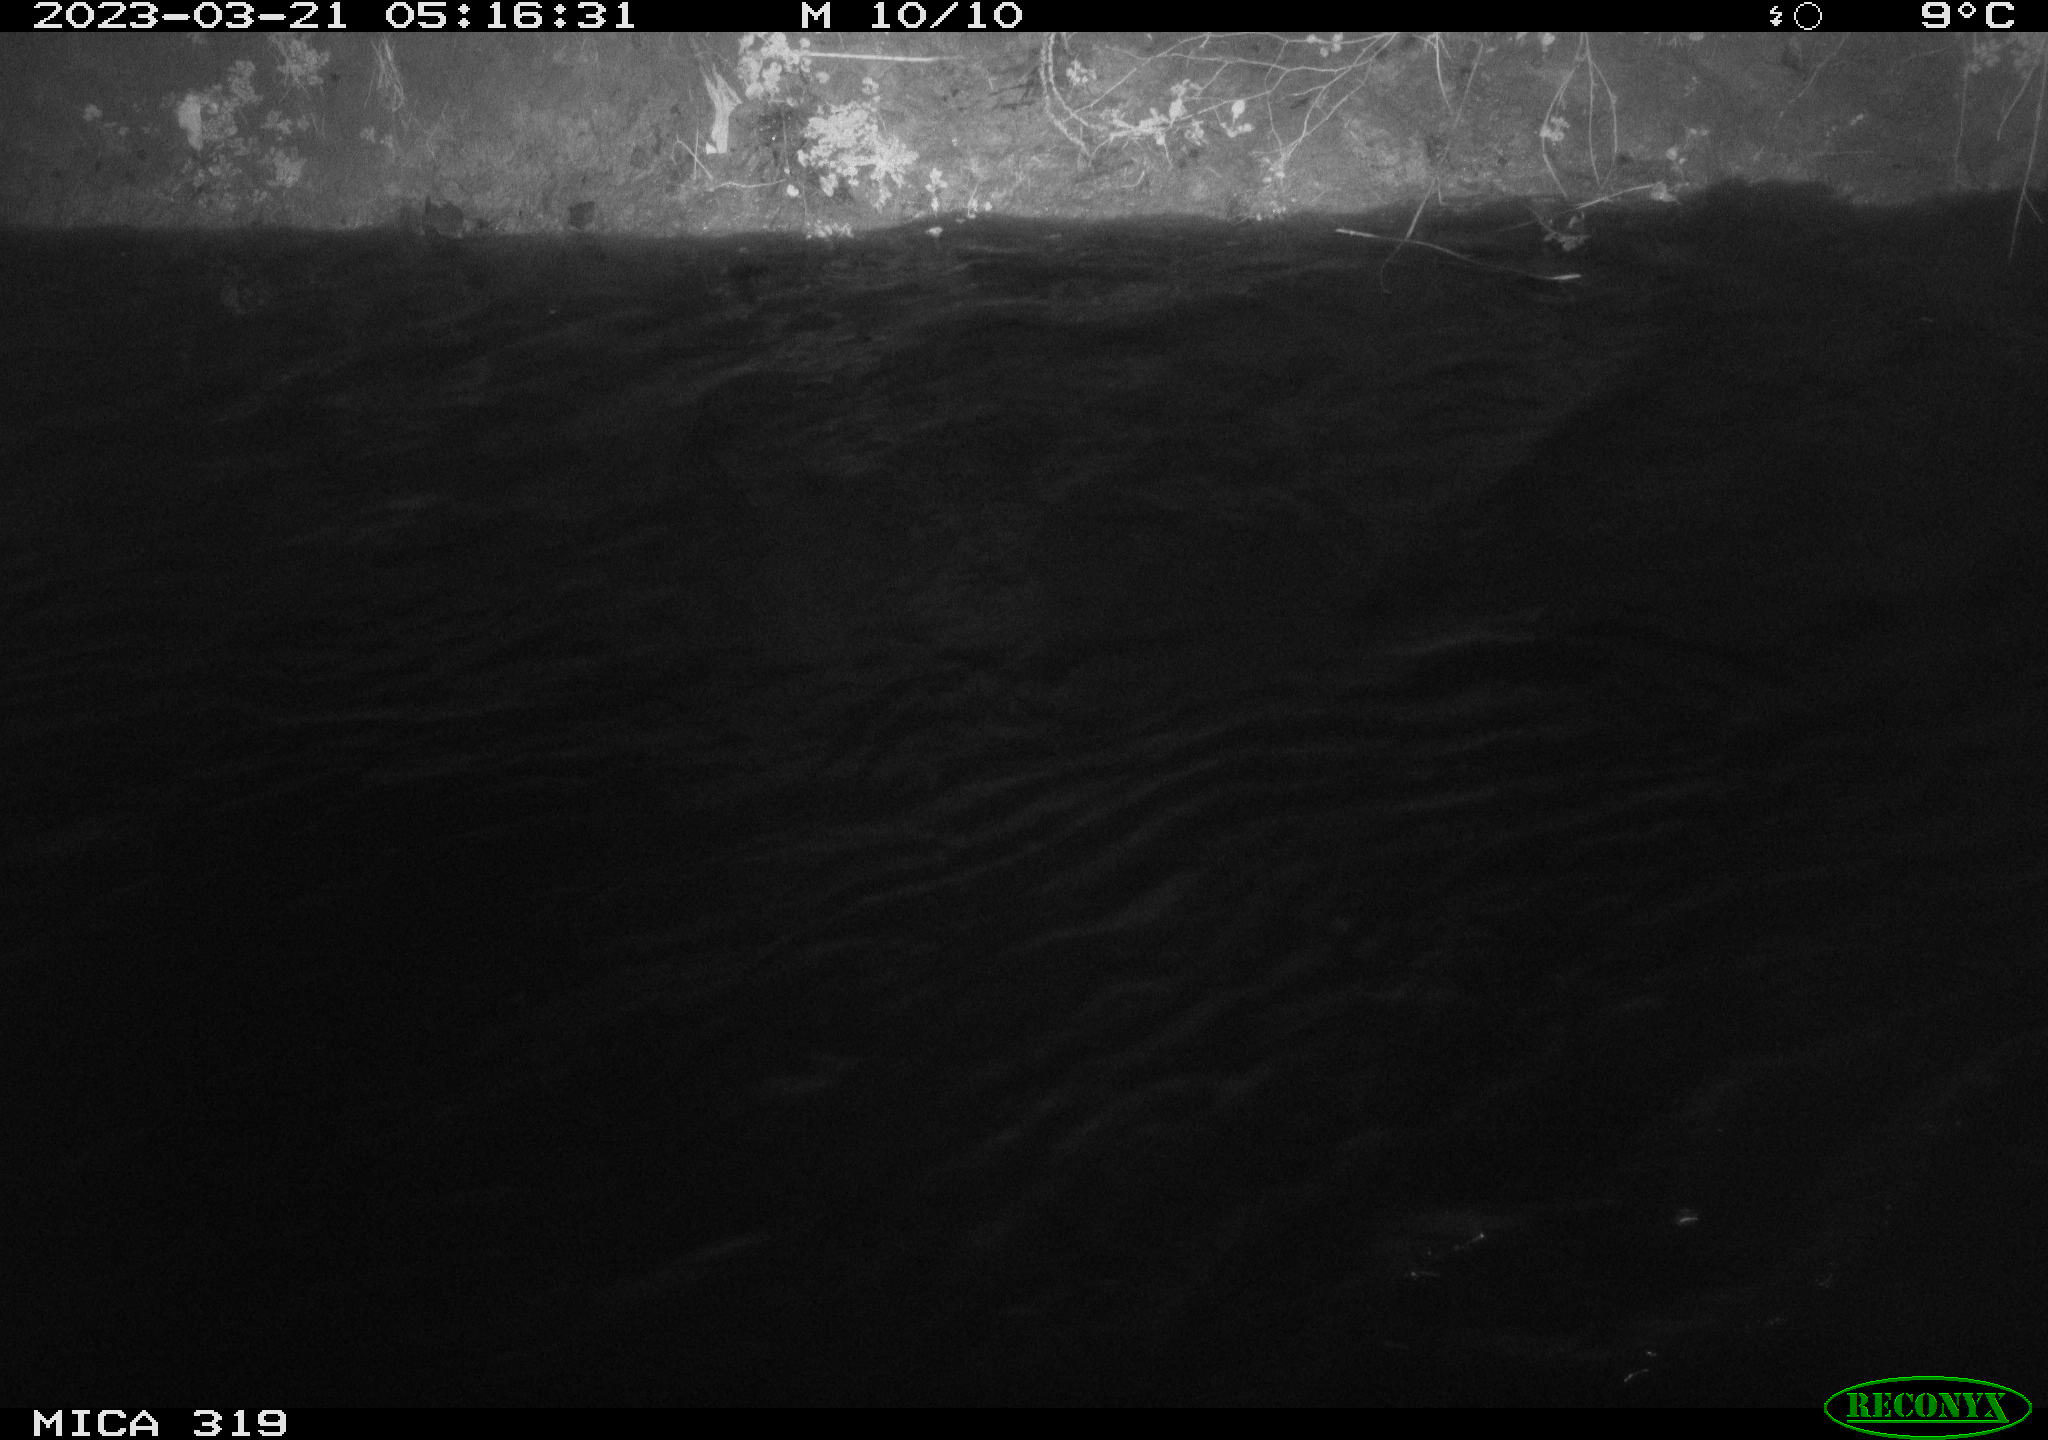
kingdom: Animalia
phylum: Chordata
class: Aves
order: Anseriformes
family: Anatidae
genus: Anas
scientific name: Anas
